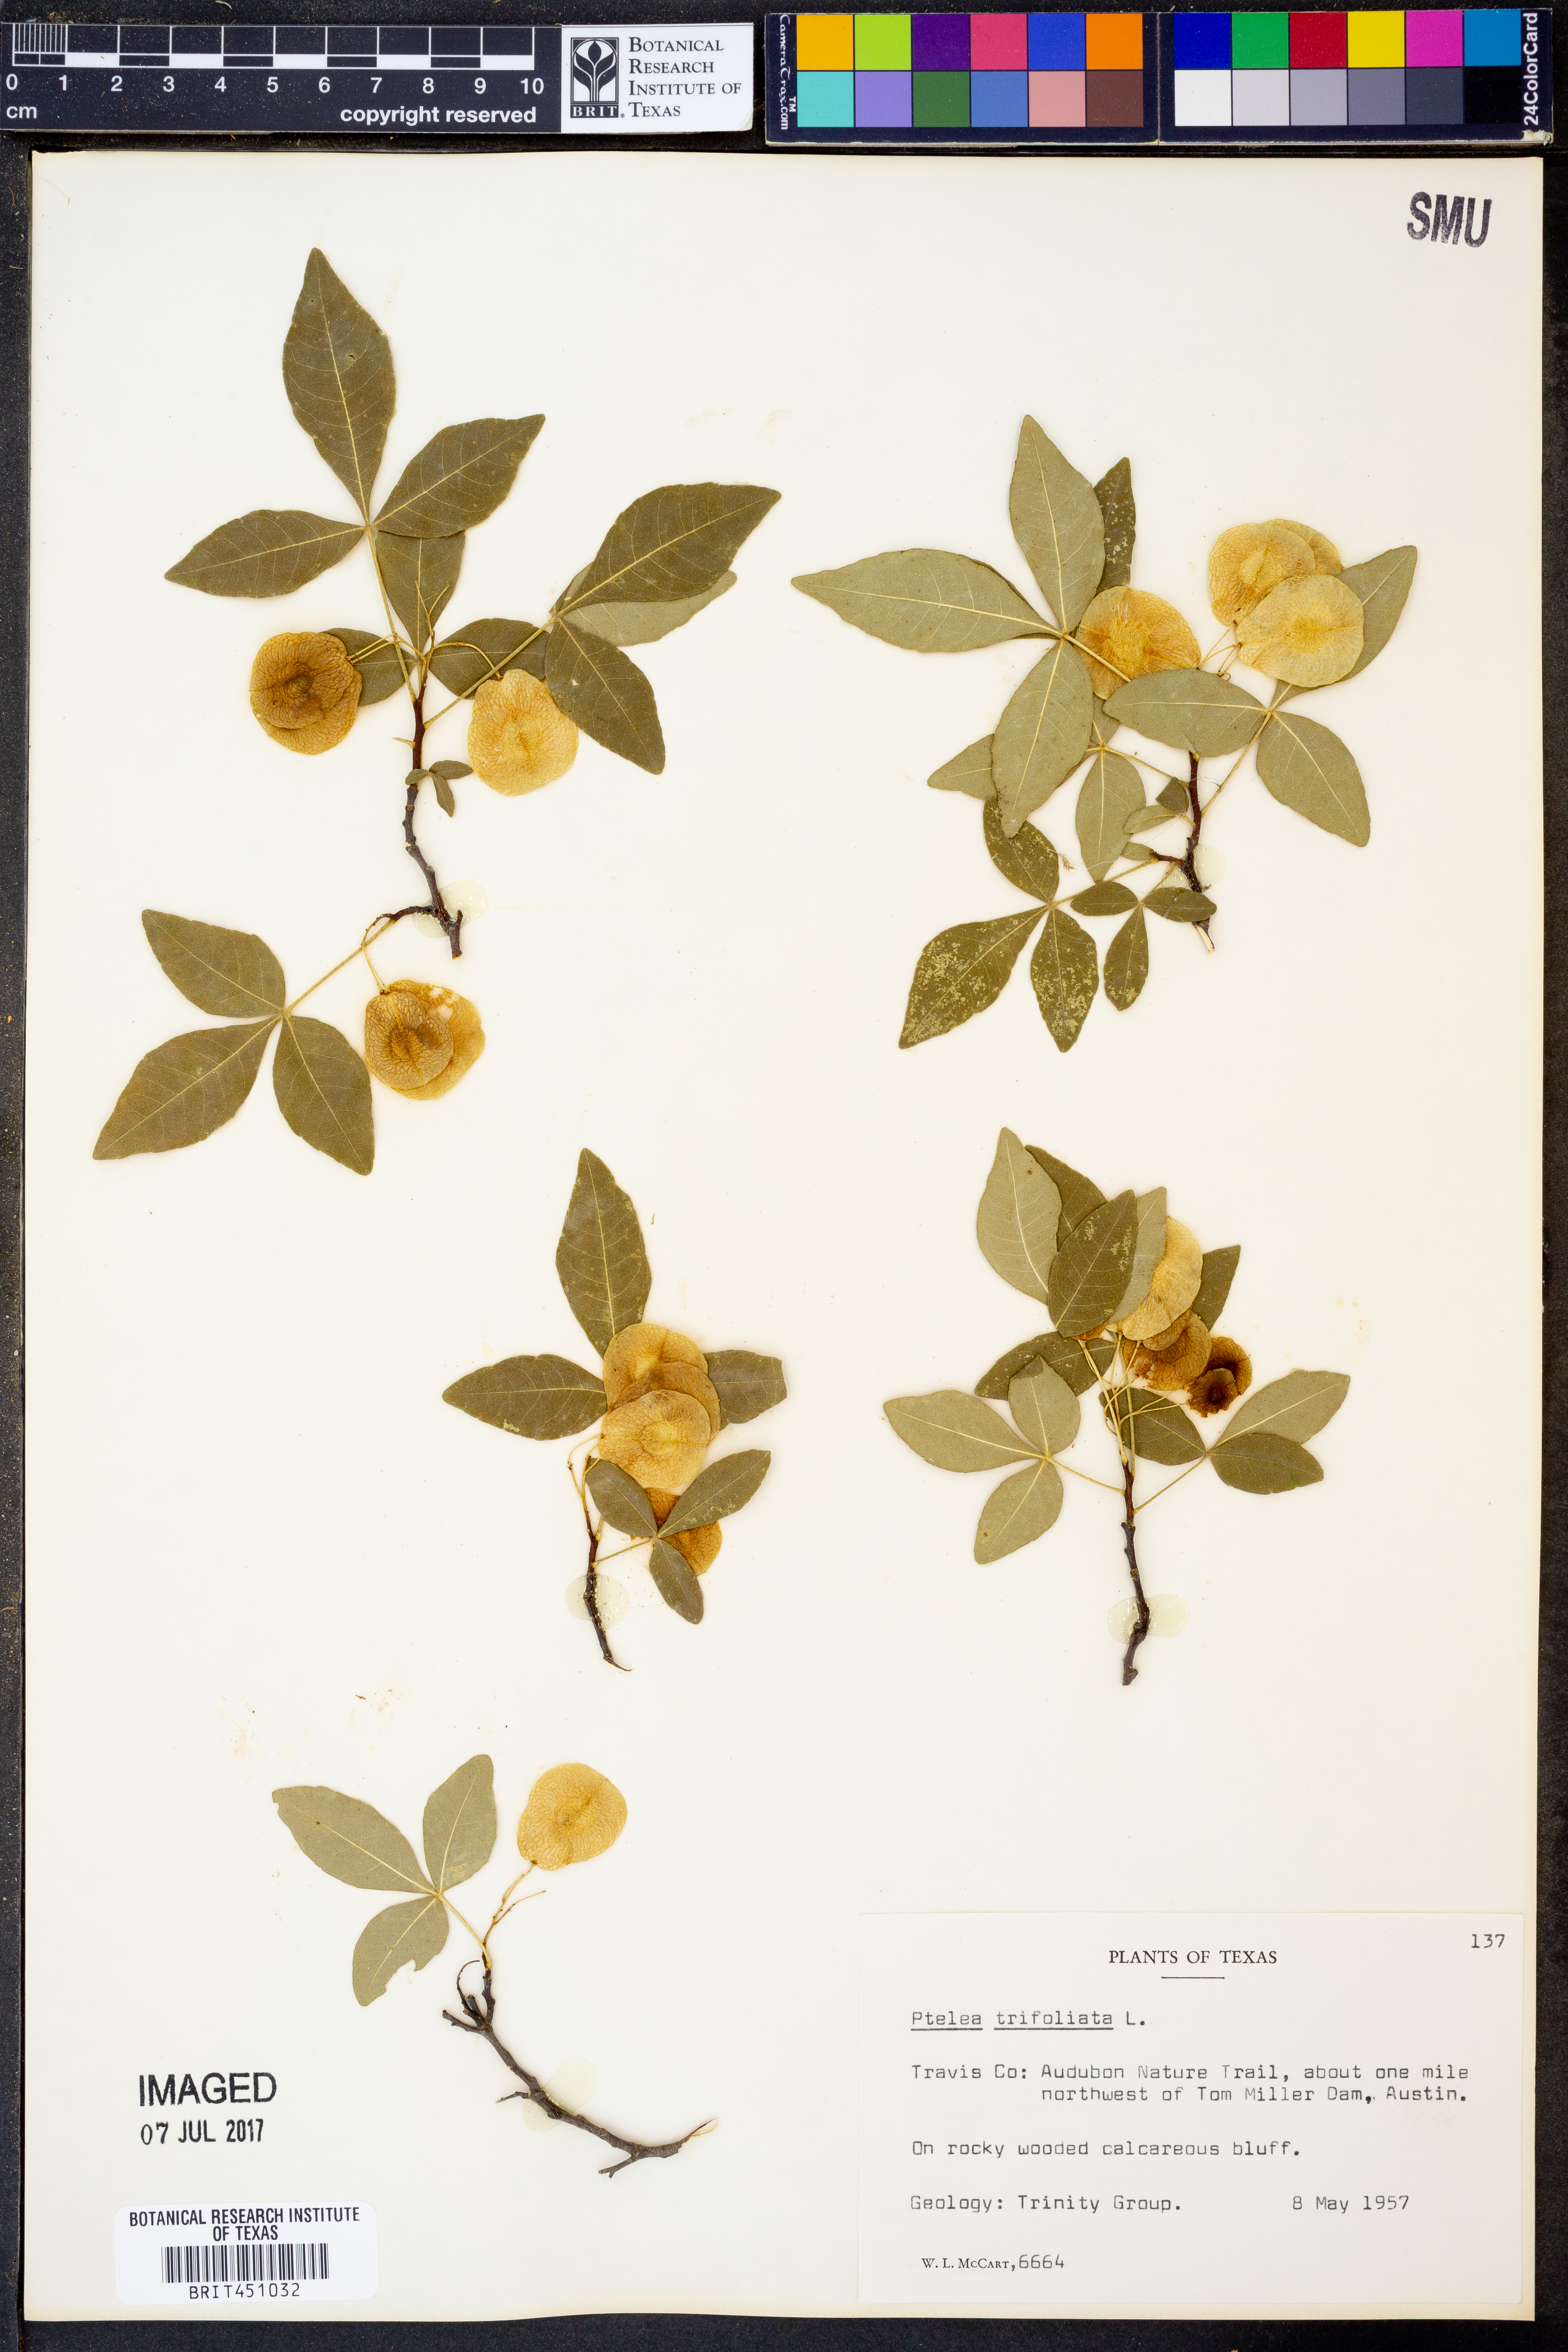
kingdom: Plantae
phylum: Tracheophyta
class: Magnoliopsida
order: Sapindales
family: Rutaceae
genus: Ptelea
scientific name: Ptelea trifoliata
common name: Common hop-tree
